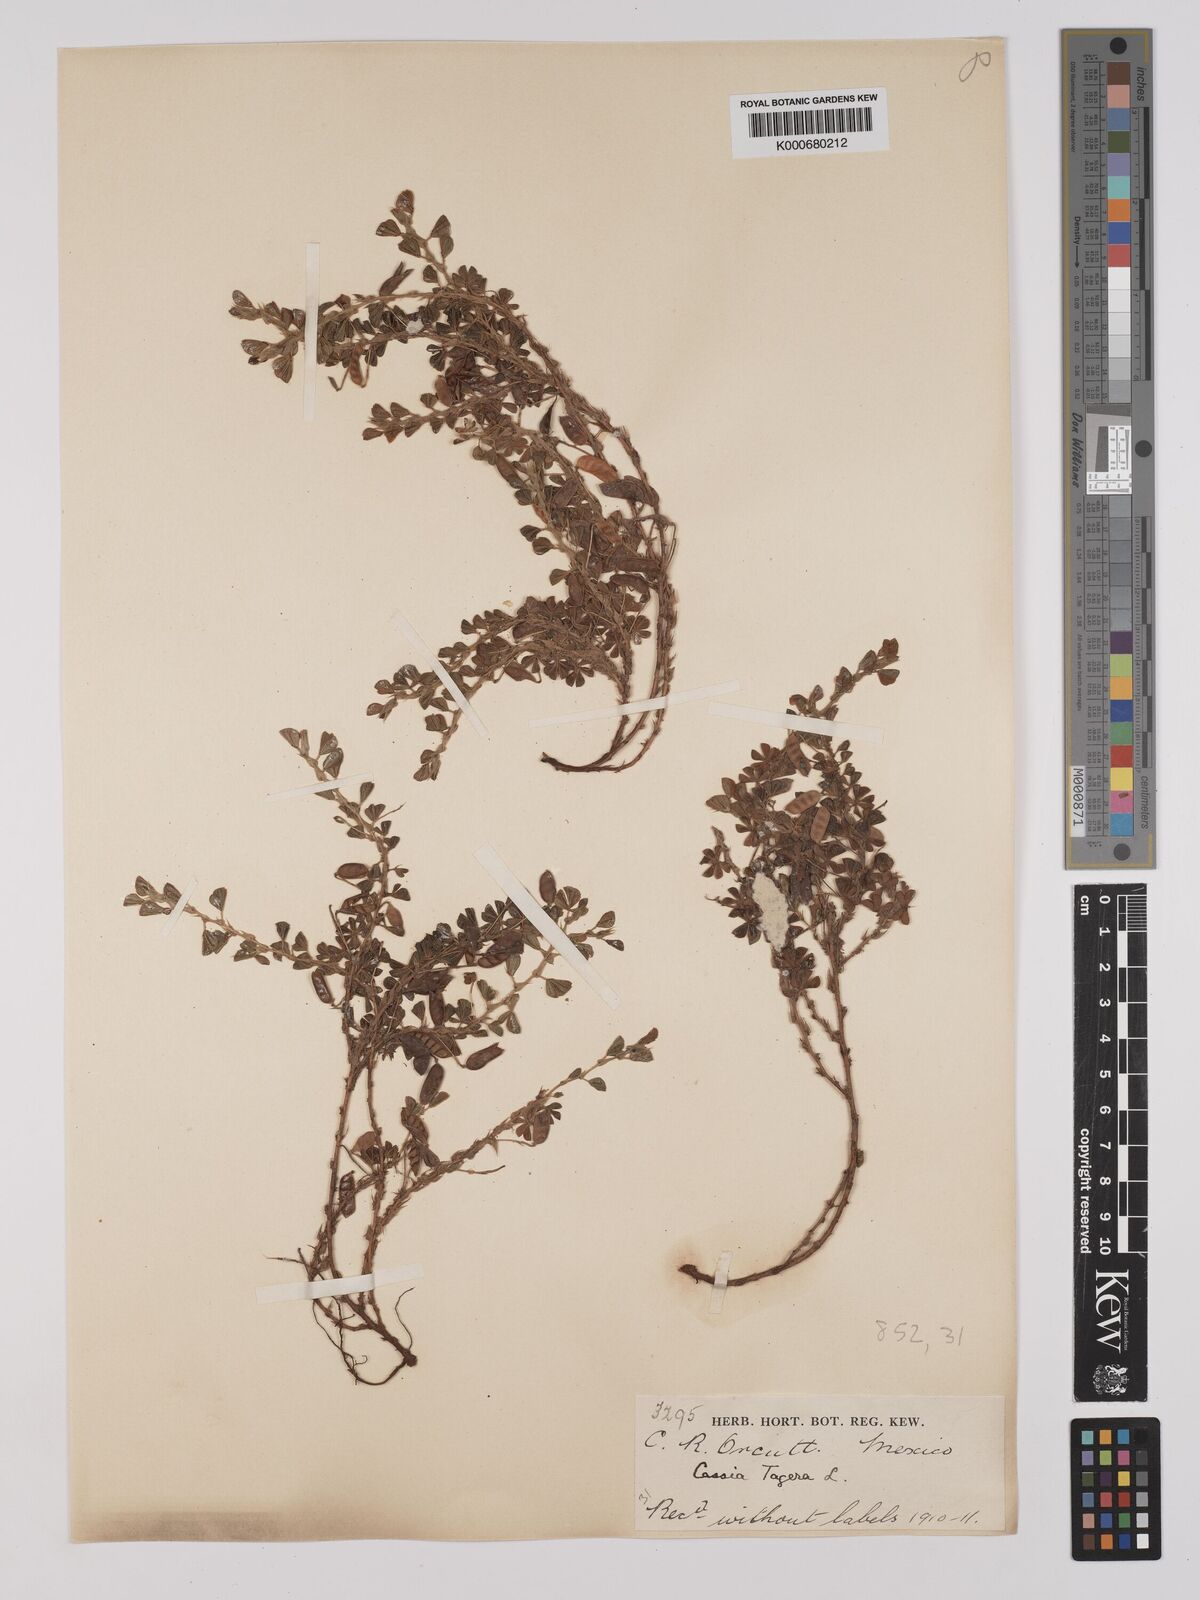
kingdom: Plantae
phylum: Tracheophyta
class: Magnoliopsida
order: Fabales
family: Fabaceae
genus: Chamaecrista
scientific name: Chamaecrista kunthiana
